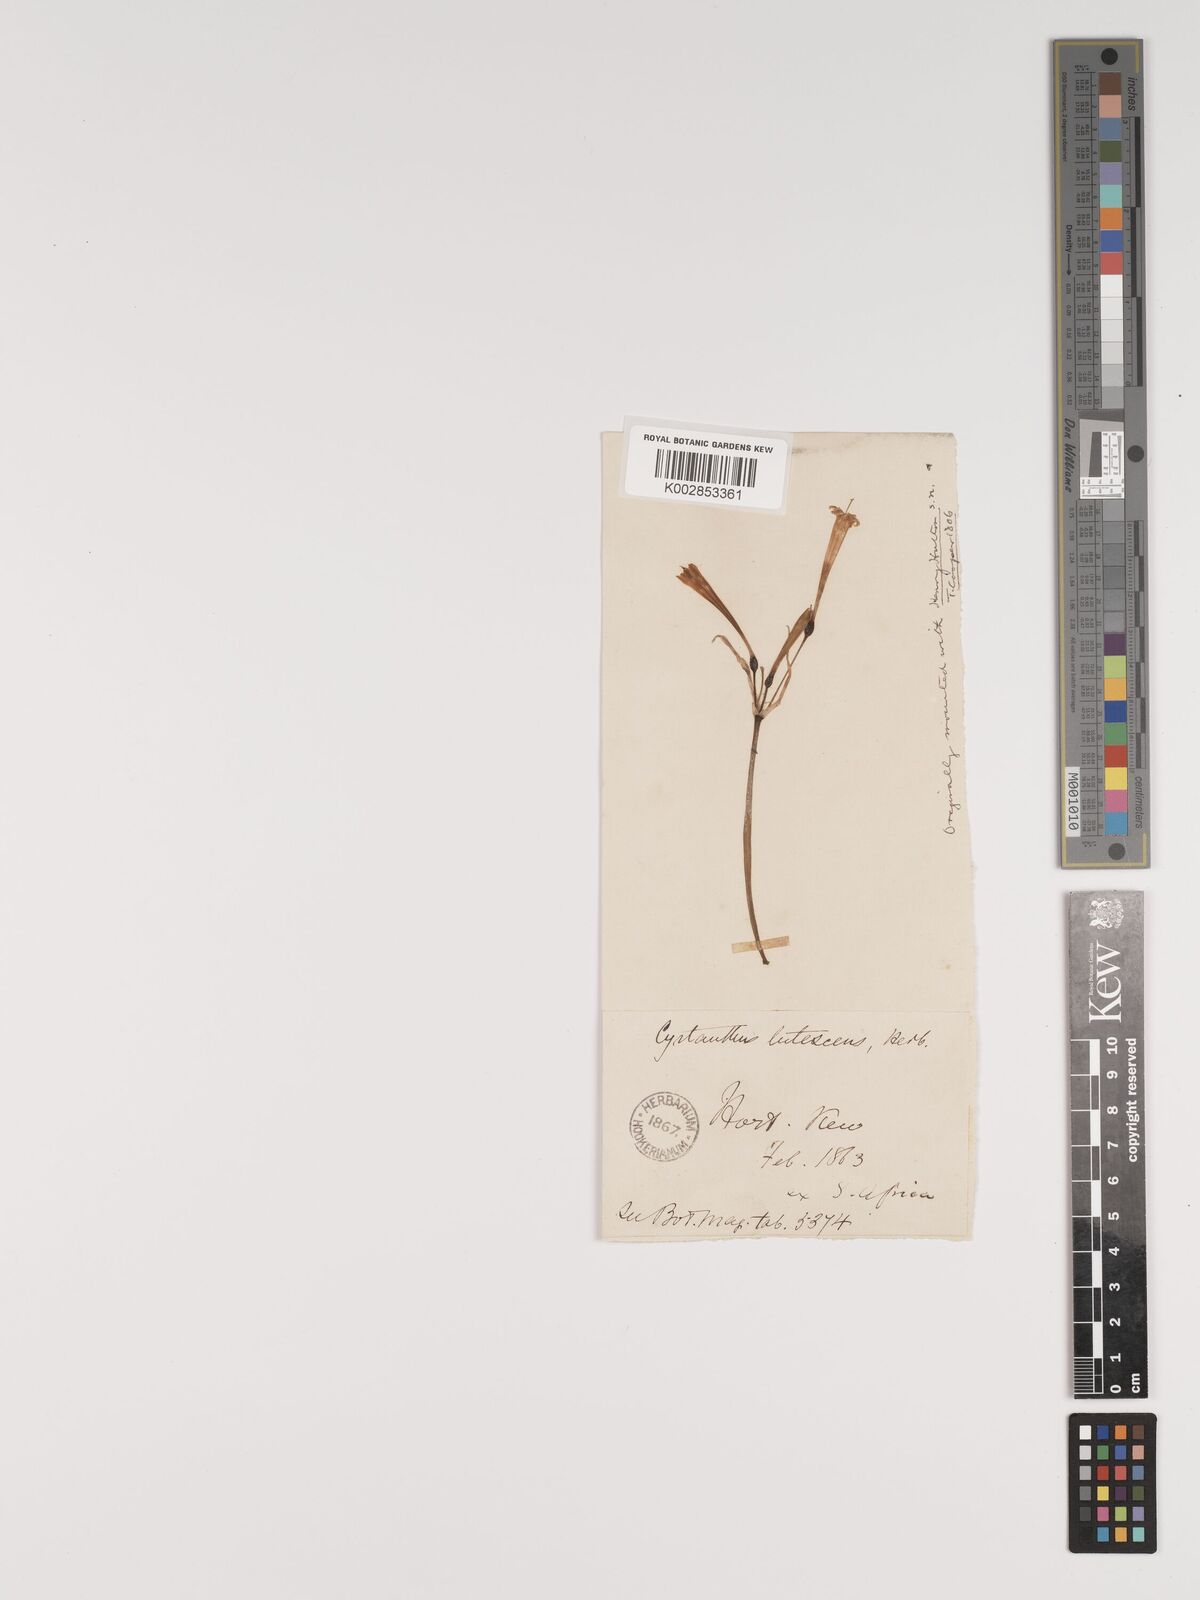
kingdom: Plantae
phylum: Tracheophyta
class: Liliopsida
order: Asparagales
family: Amaryllidaceae
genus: Cyrtanthus
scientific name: Cyrtanthus ochroleucus
